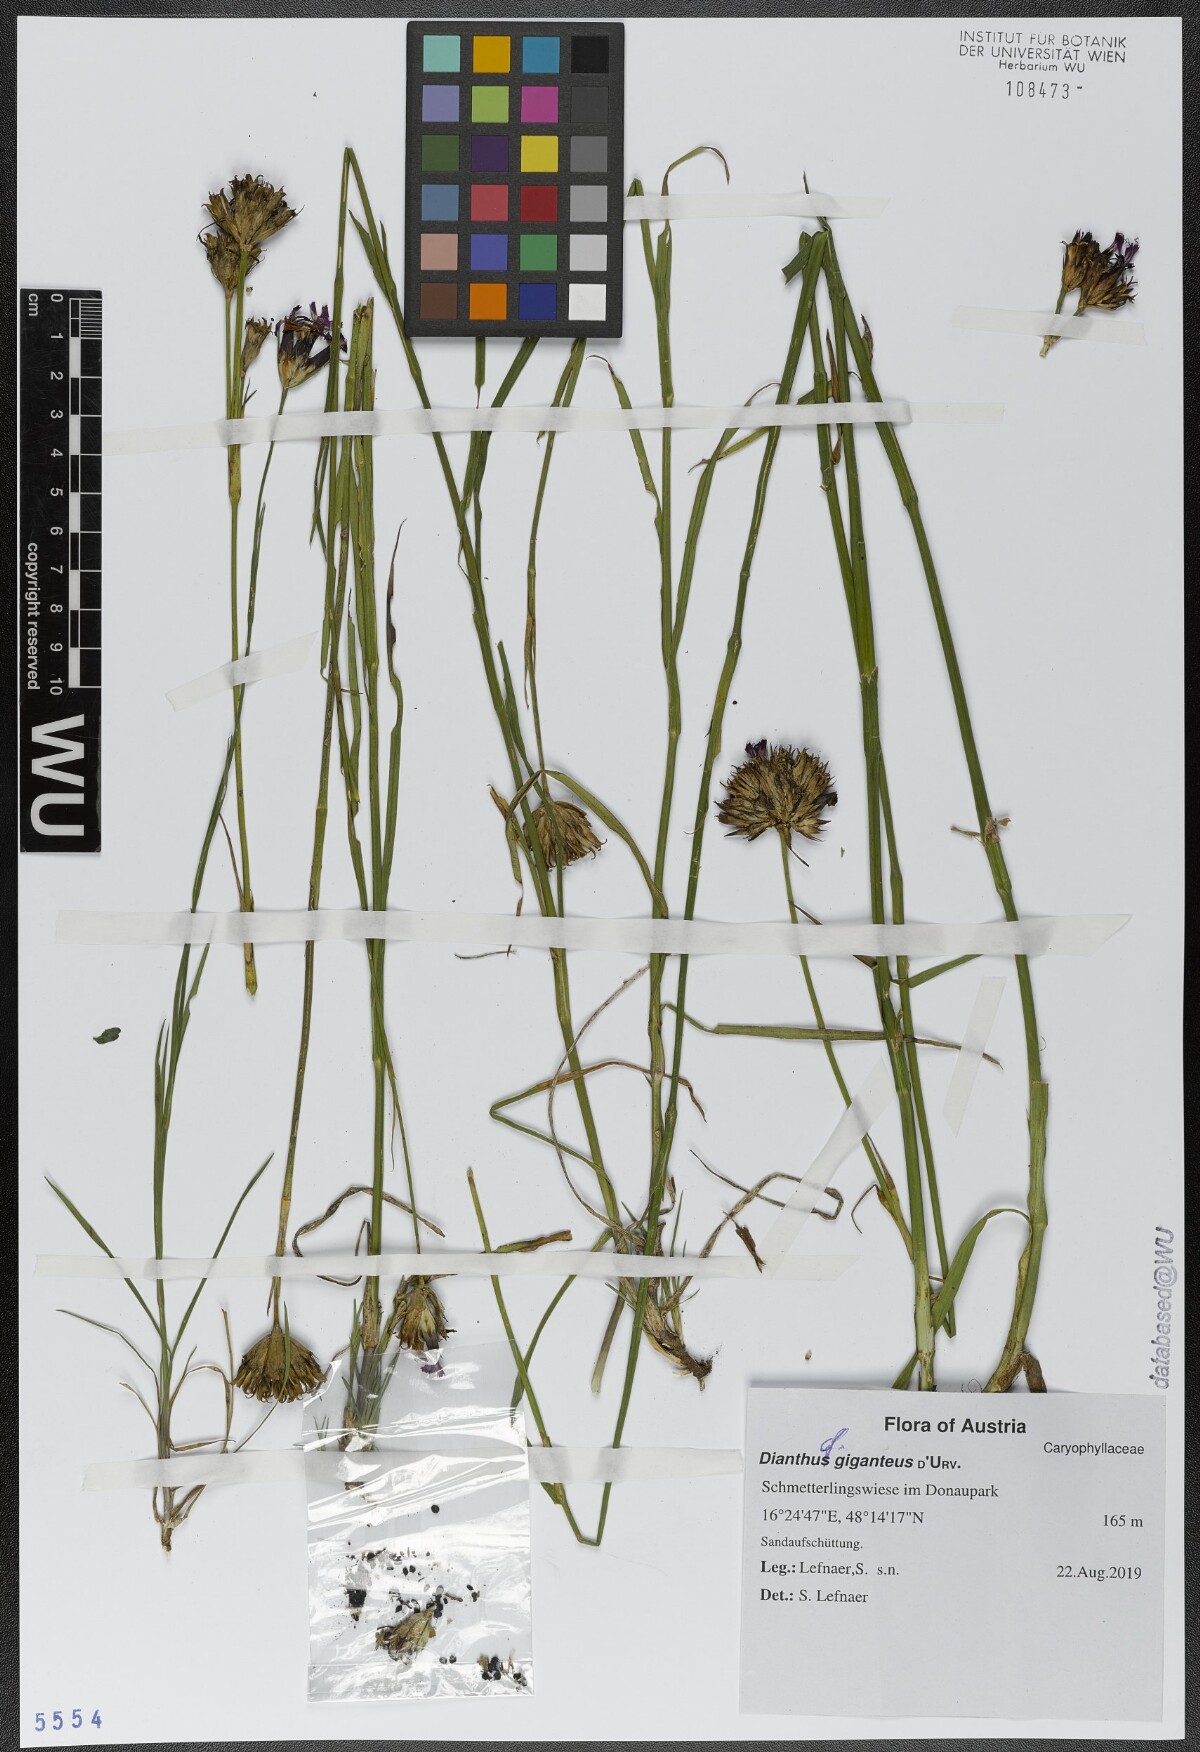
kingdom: Plantae
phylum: Tracheophyta
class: Magnoliopsida
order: Caryophyllales
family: Caryophyllaceae
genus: Dianthus
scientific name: Dianthus giganteus
